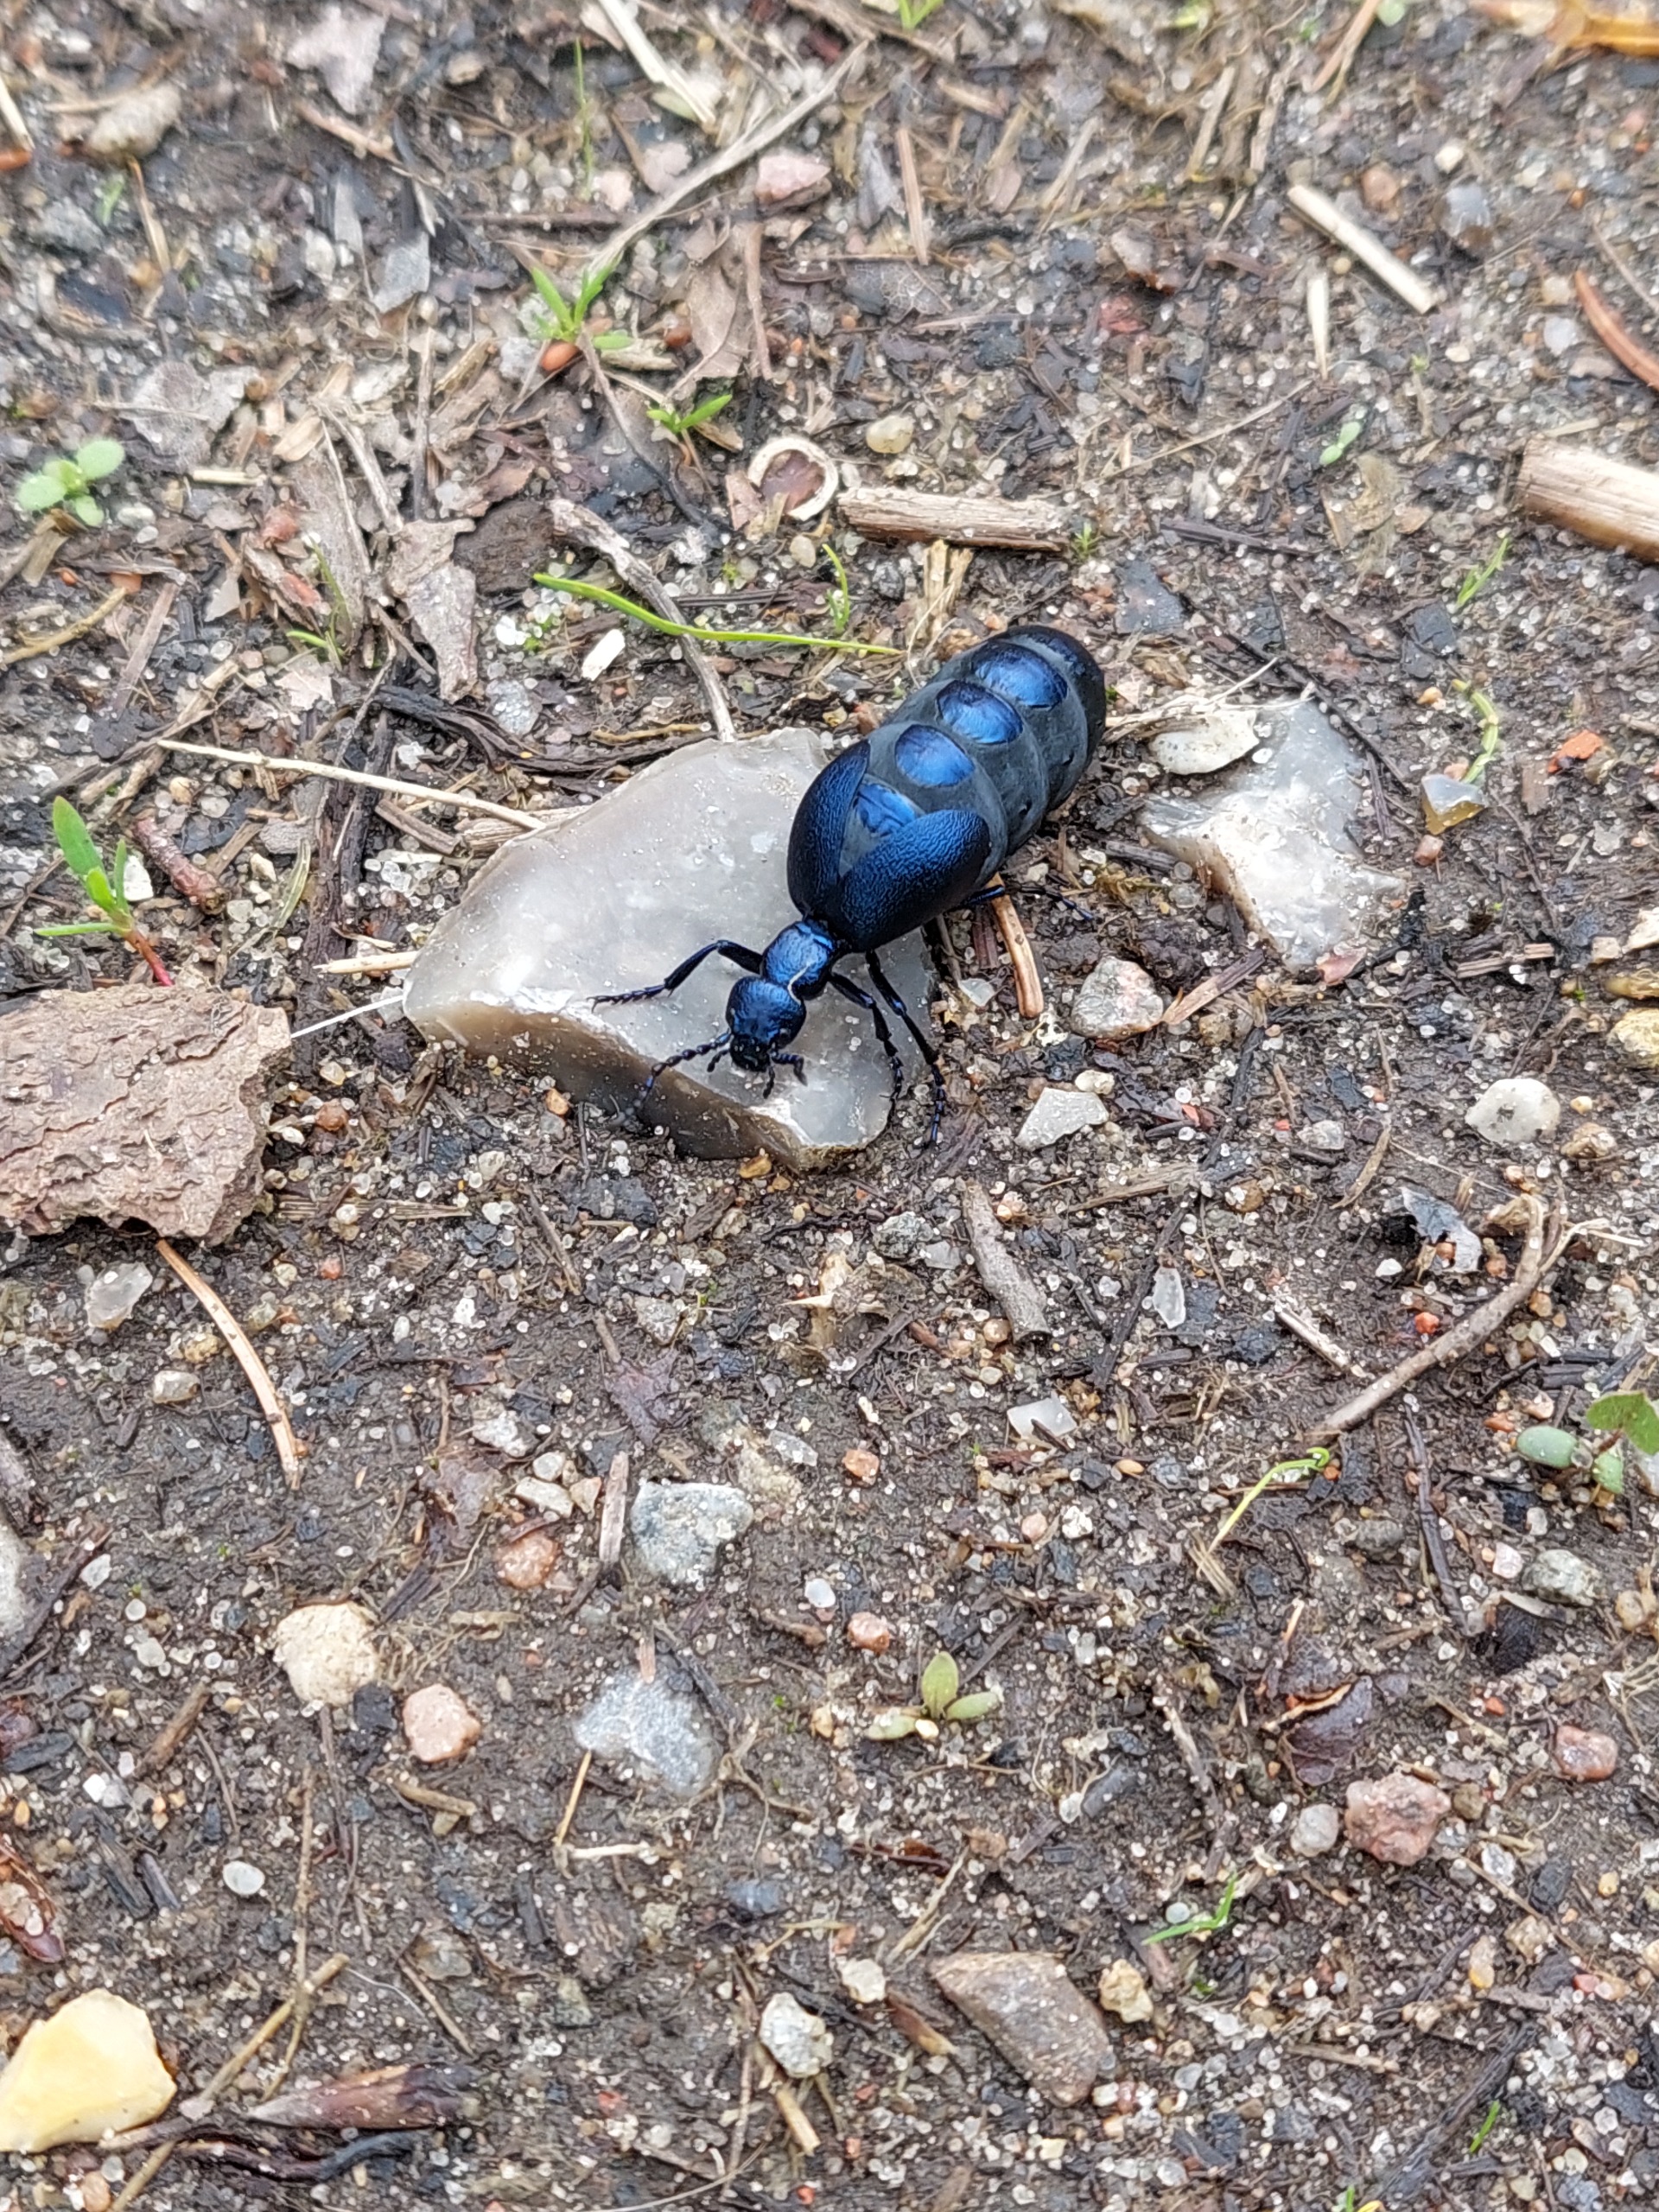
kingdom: Animalia
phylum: Arthropoda
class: Insecta
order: Coleoptera
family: Meloidae
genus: Meloe
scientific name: Meloe violaceus
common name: Blå oliebille
